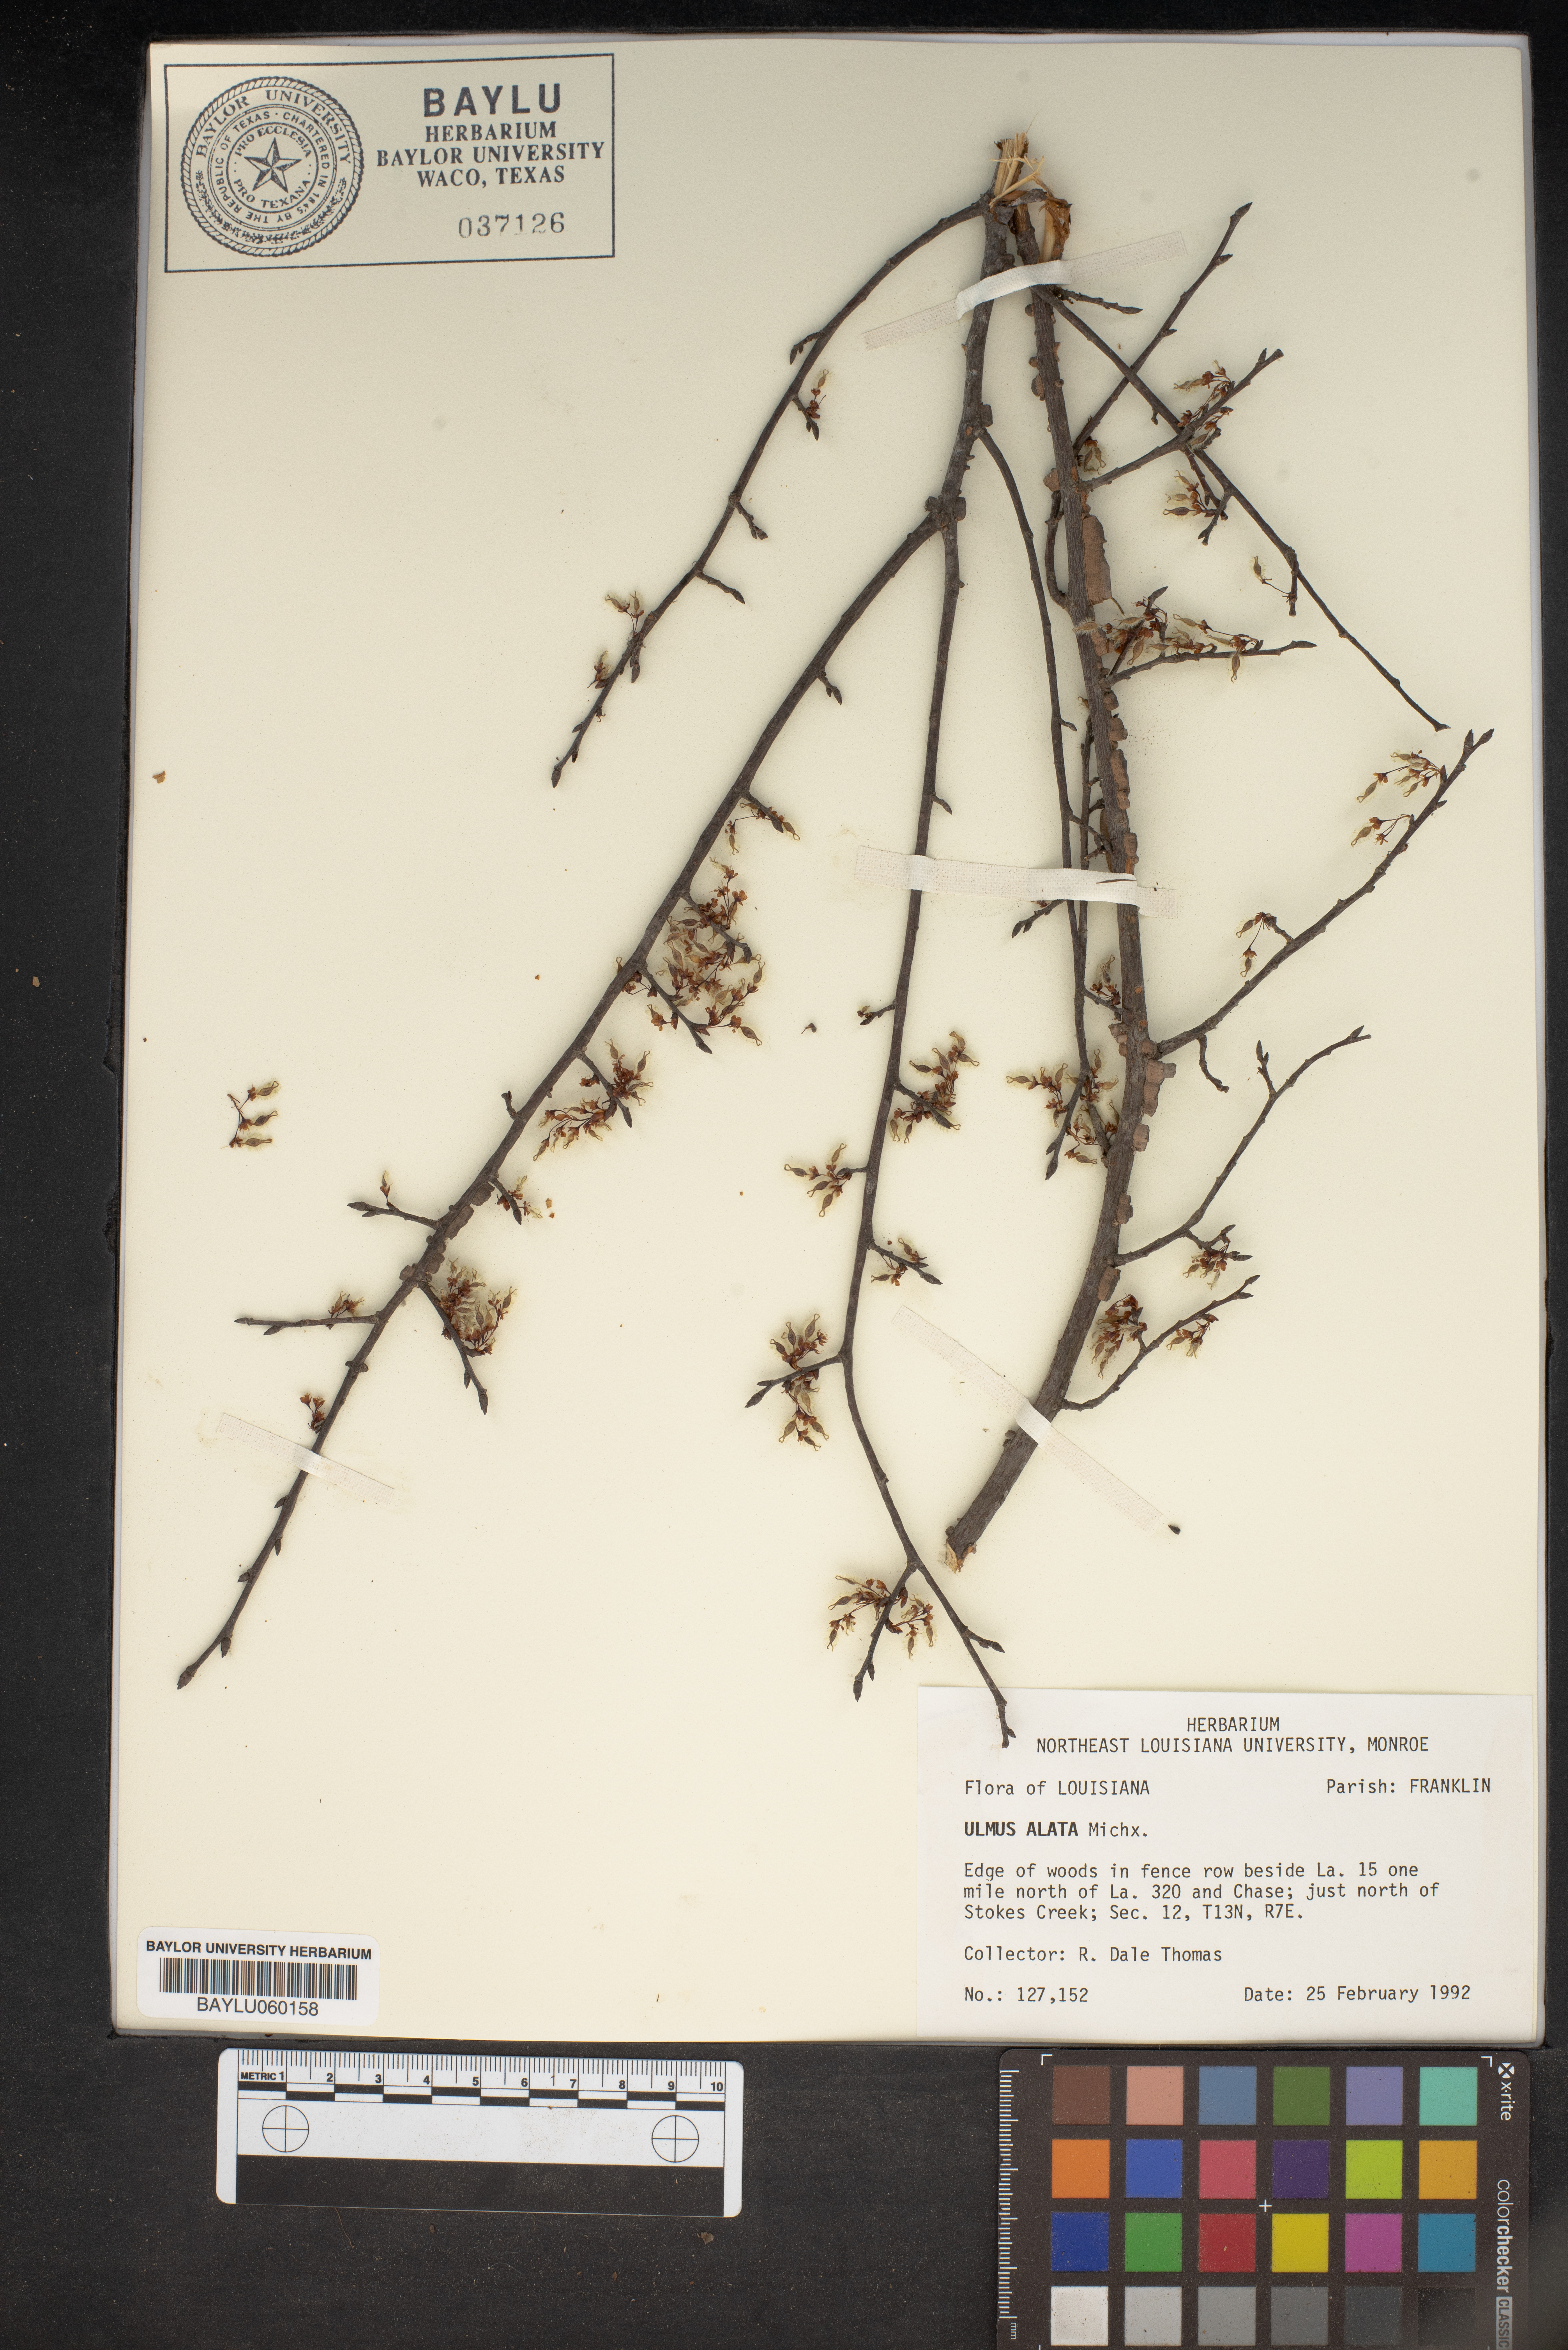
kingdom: Plantae
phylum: Tracheophyta
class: Magnoliopsida
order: Rosales
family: Ulmaceae
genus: Ulmus
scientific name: Ulmus alata
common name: Winged elm
